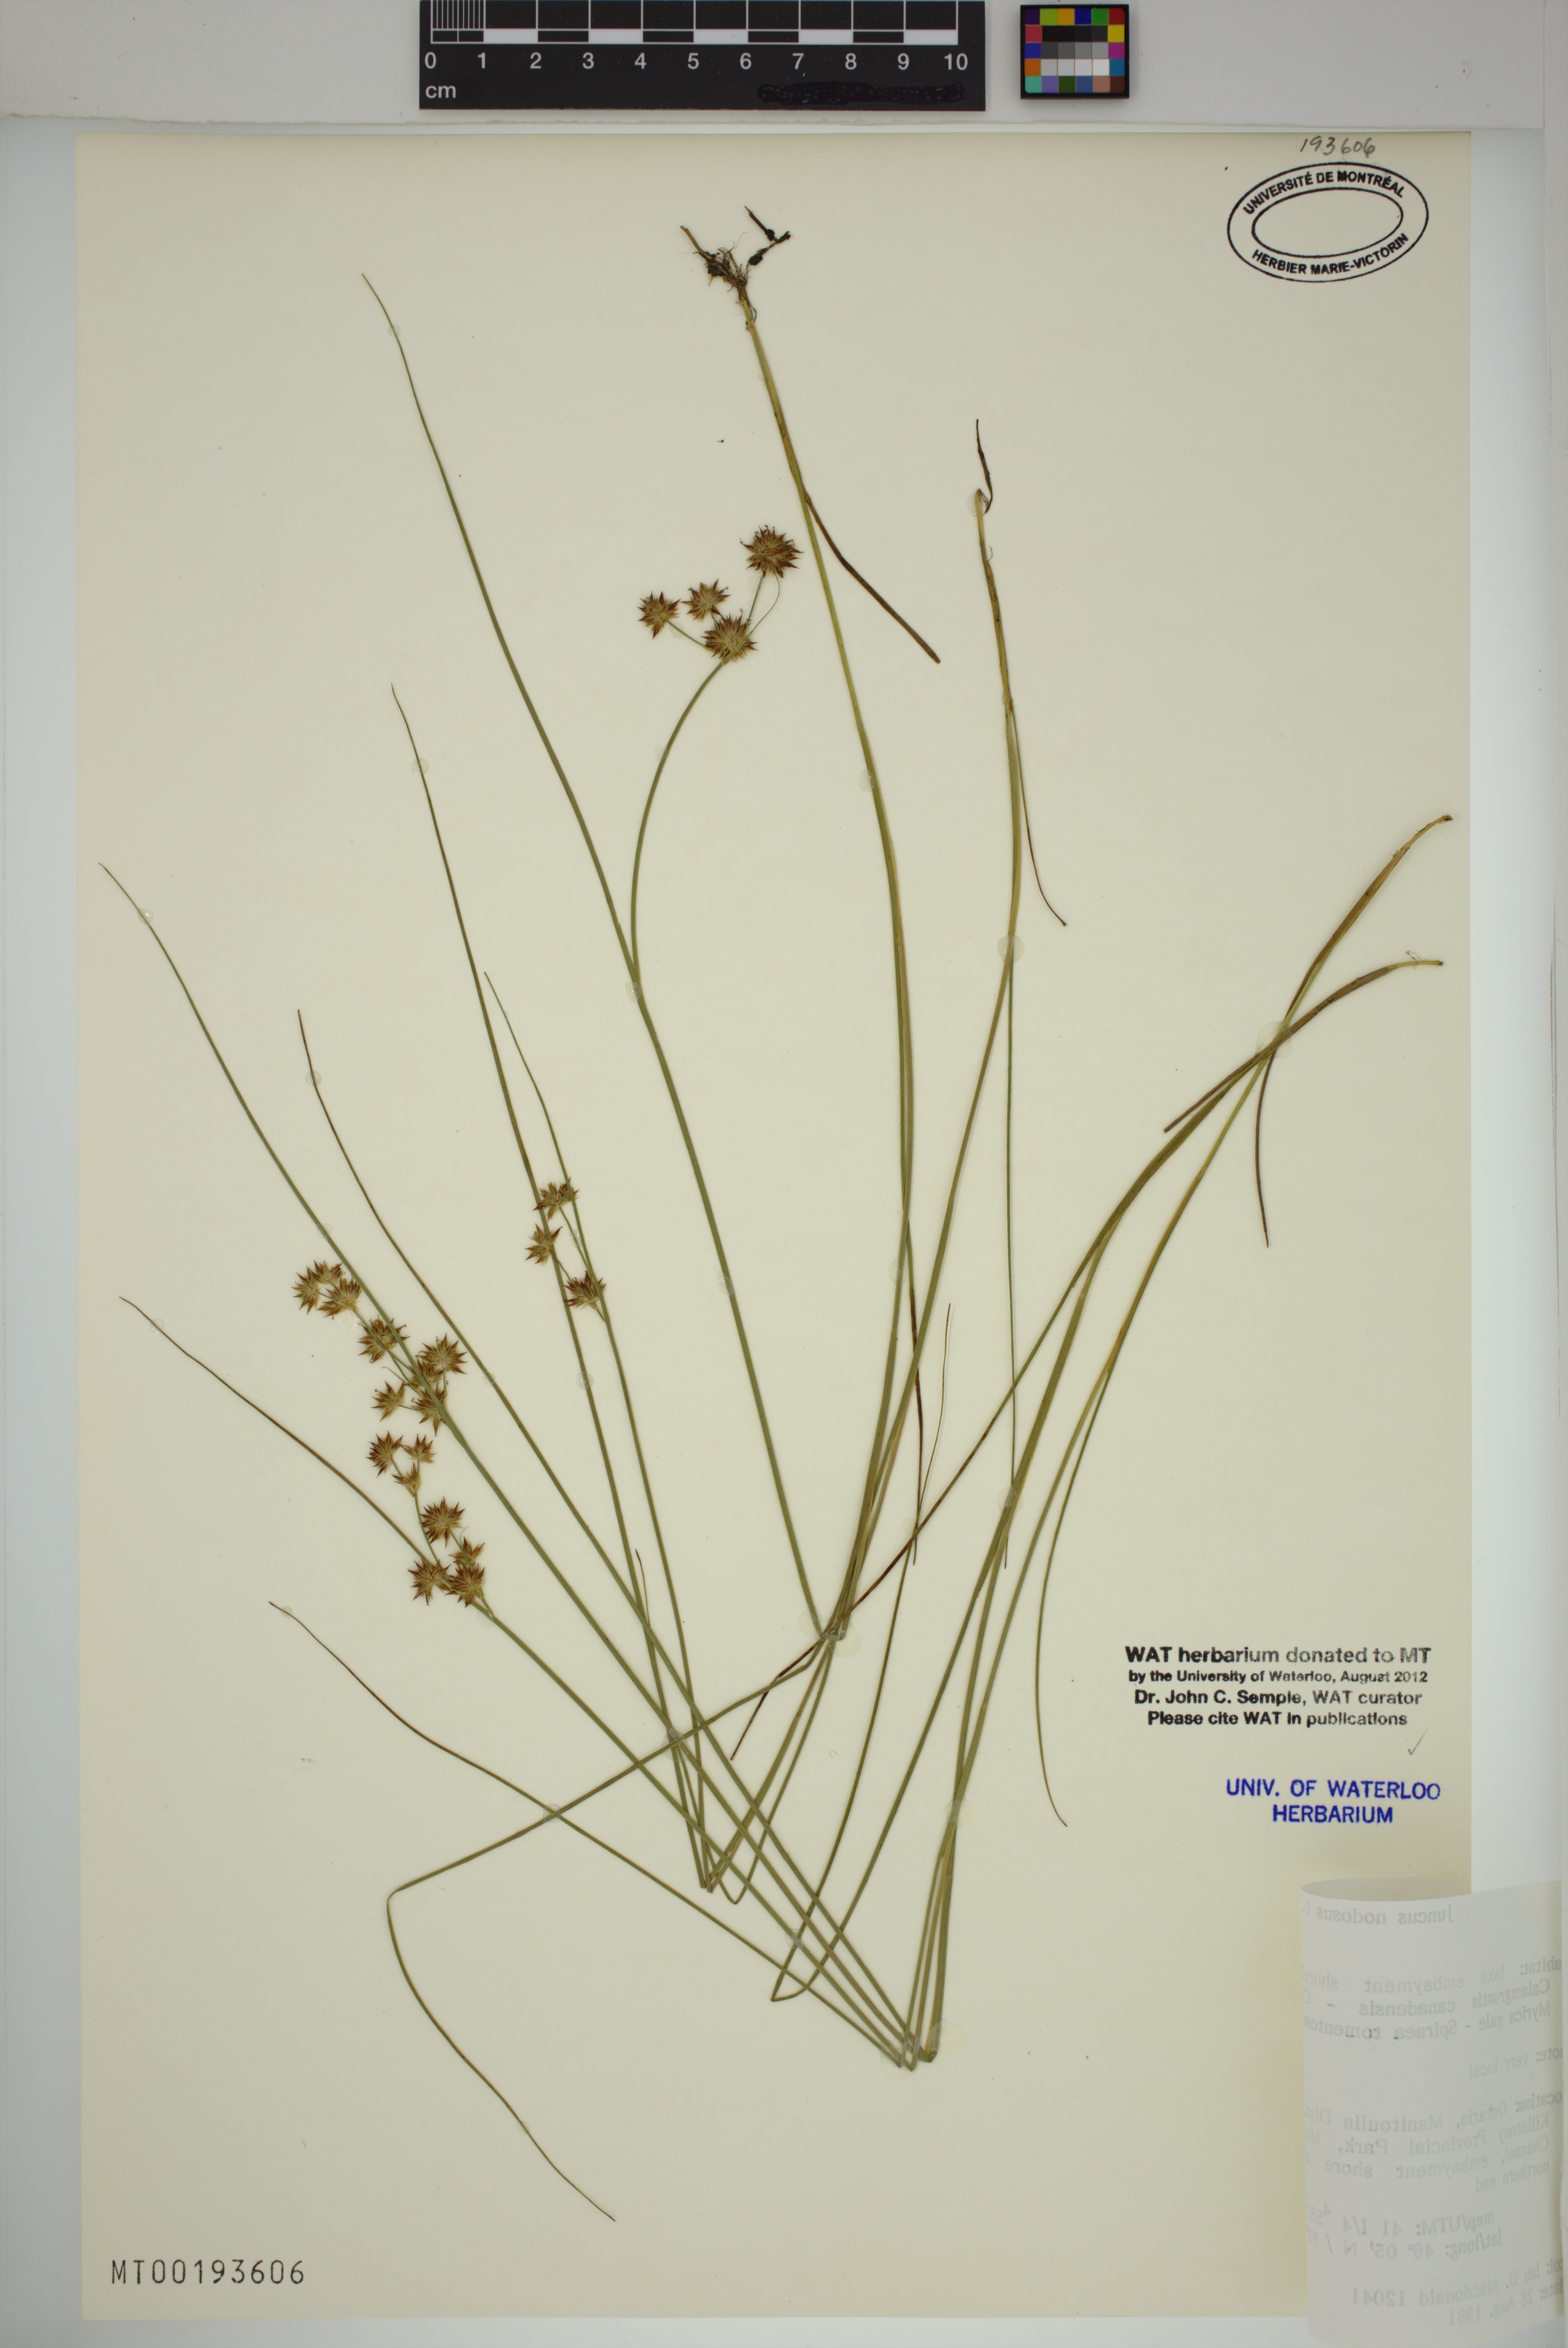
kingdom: Plantae
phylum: Tracheophyta
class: Liliopsida
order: Poales
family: Juncaceae
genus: Juncus
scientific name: Juncus nodosus
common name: Knotted rush
